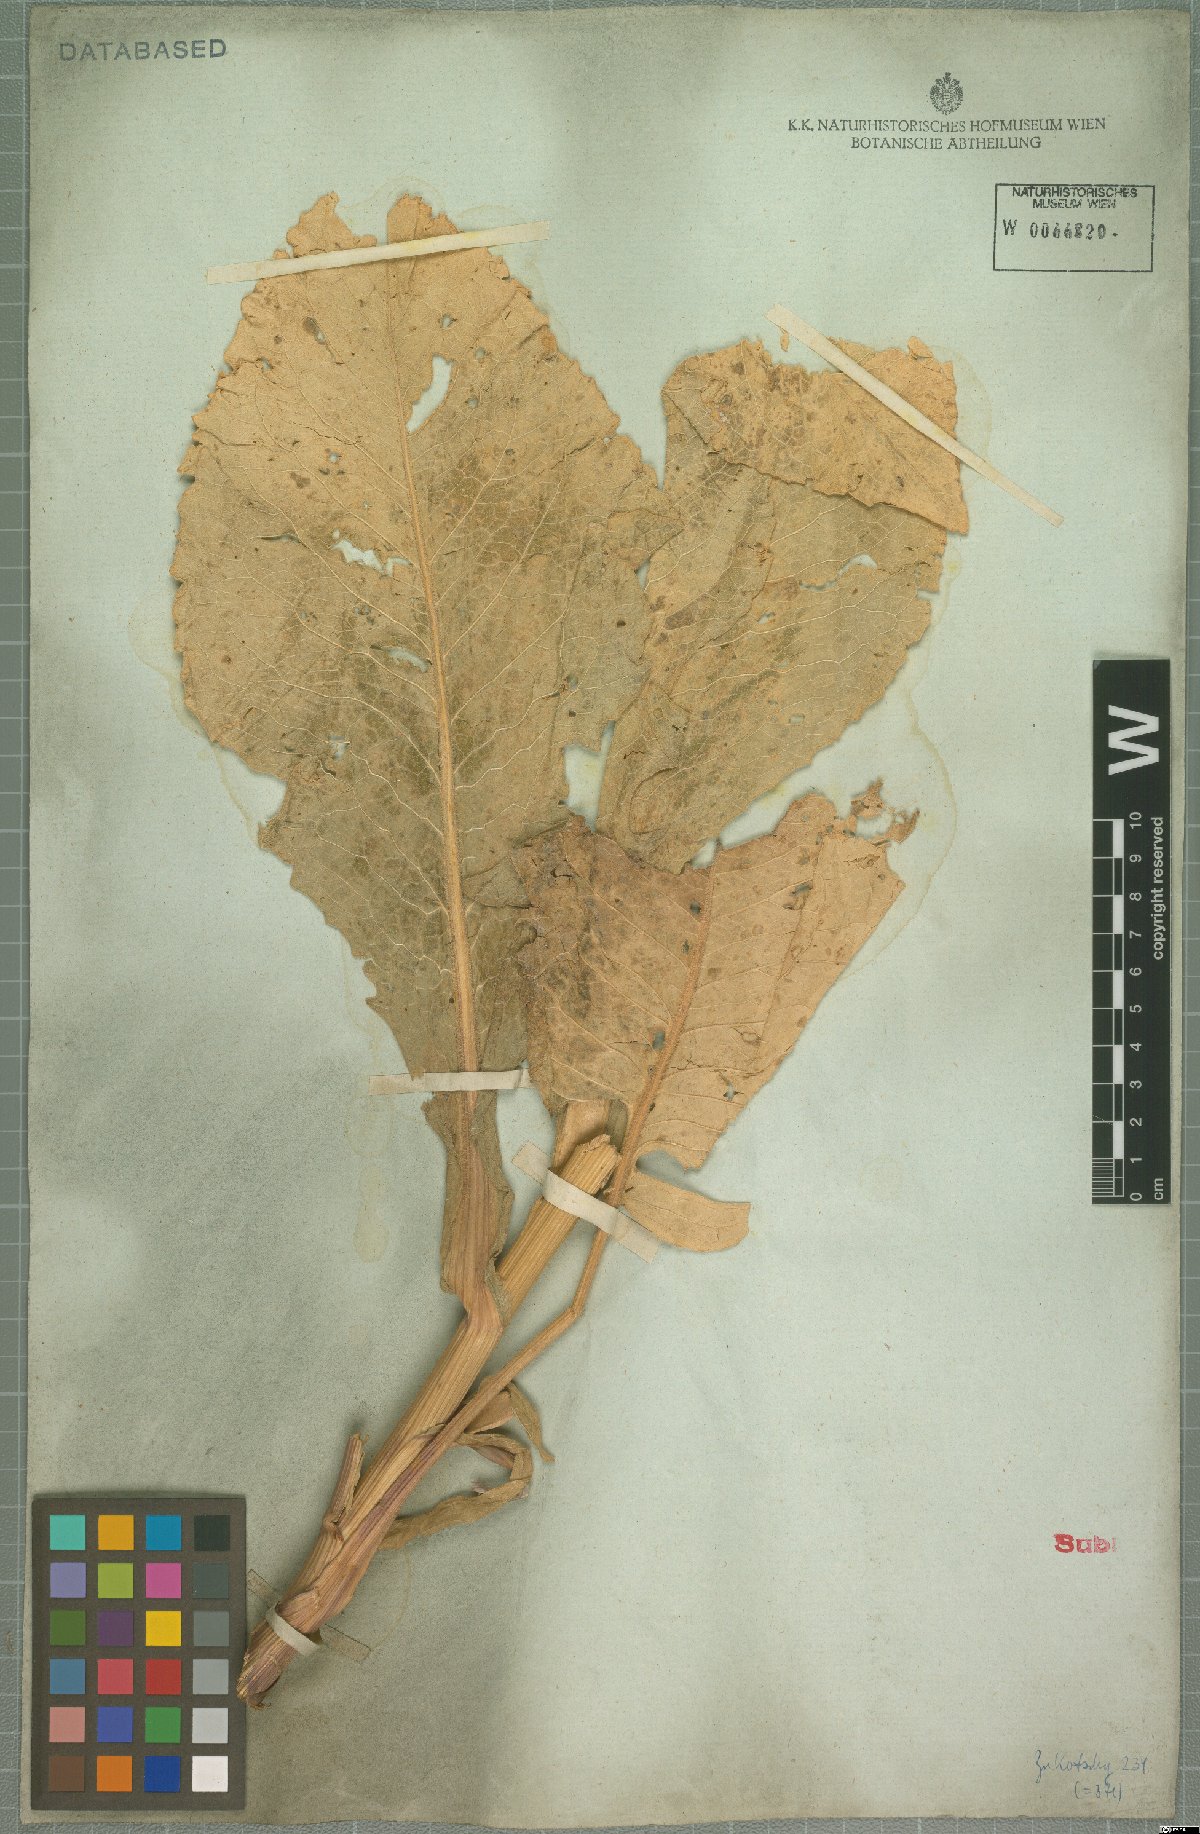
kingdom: Plantae
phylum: Tracheophyta
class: Magnoliopsida
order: Asterales
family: Asteraceae
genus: Centaurea
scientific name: Centaurea regia
